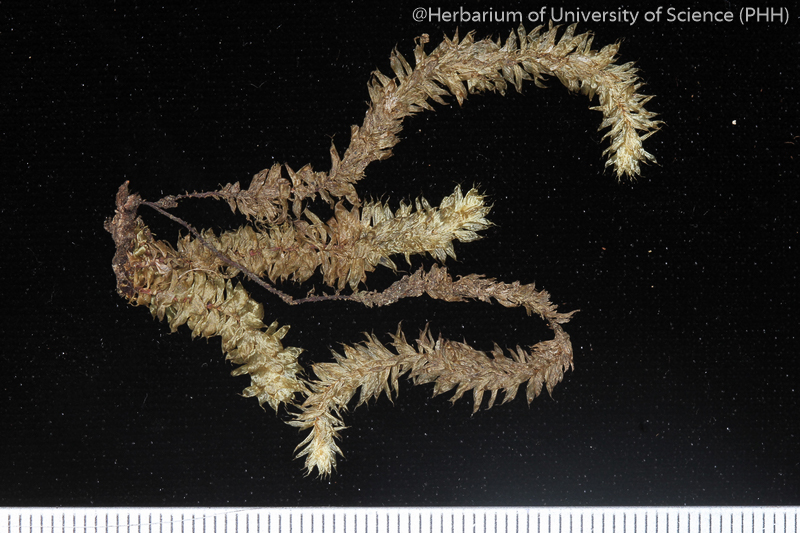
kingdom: Plantae
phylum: Bryophyta
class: Bryopsida
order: Ptychomniales
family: Ptychomniaceae
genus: Garovaglia
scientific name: Garovaglia elegans
